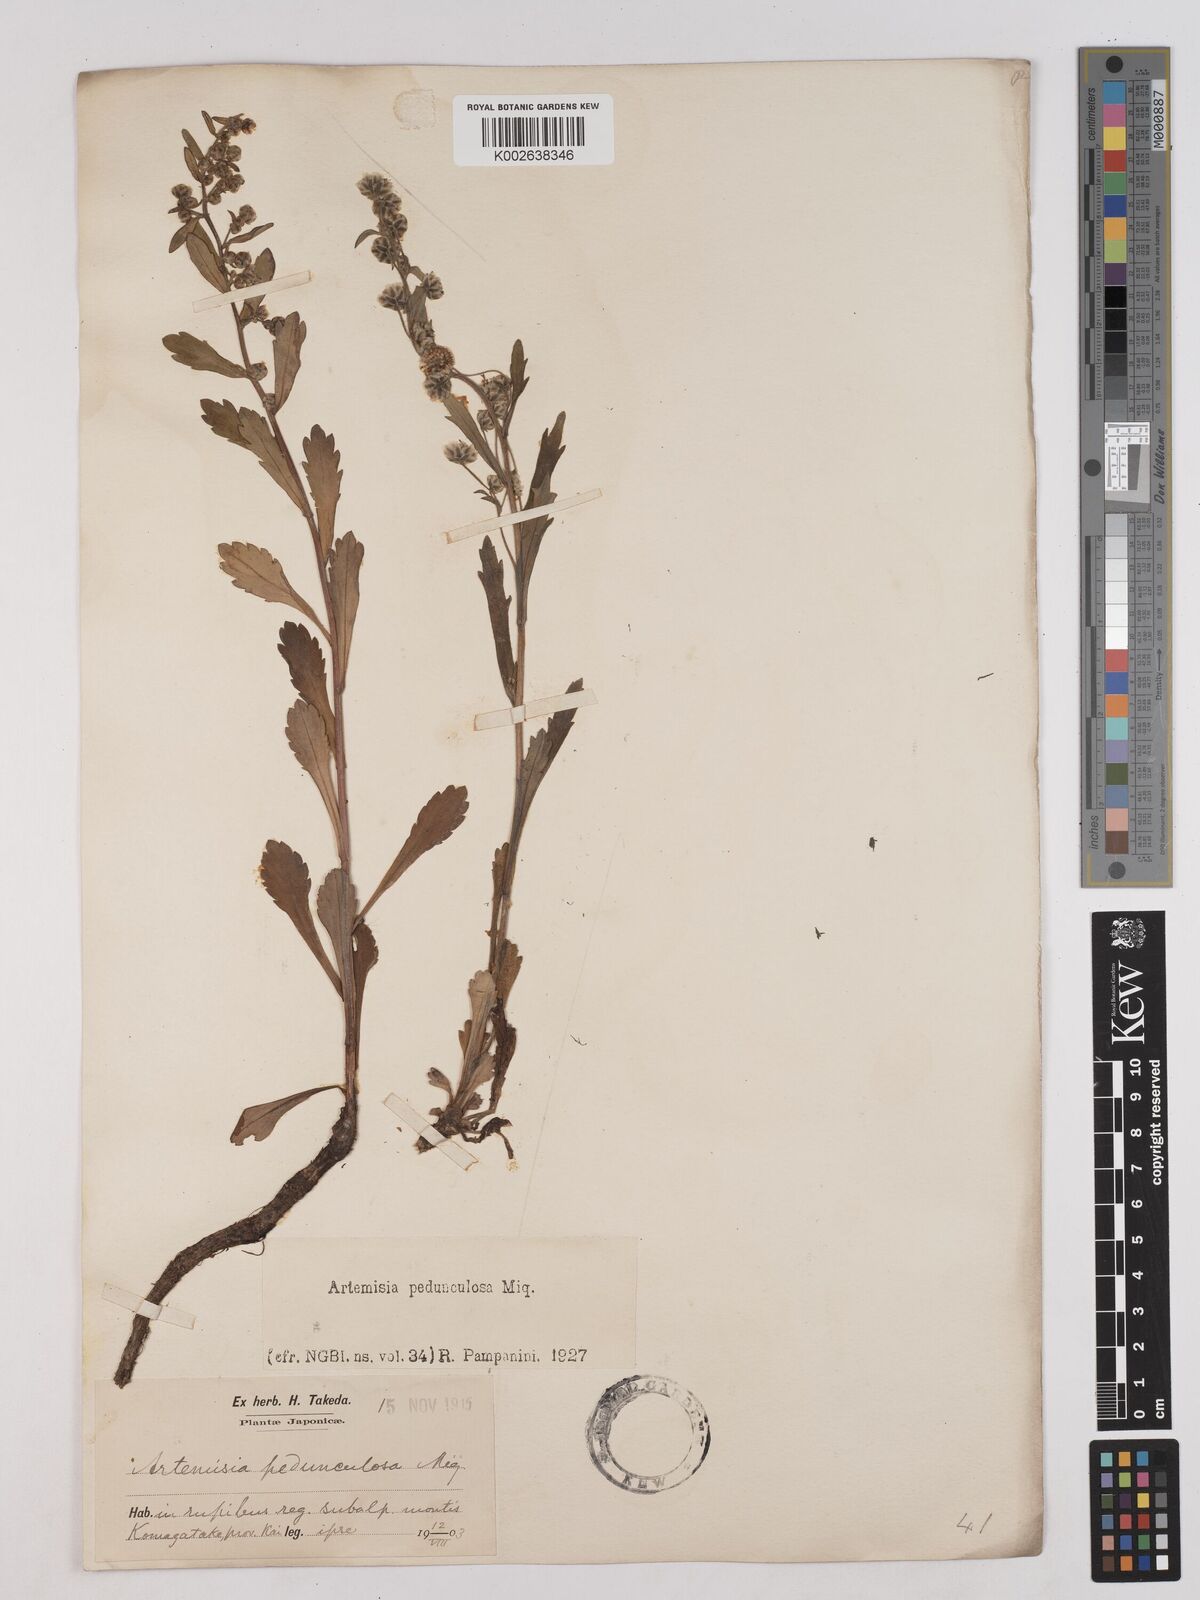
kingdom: Plantae
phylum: Tracheophyta
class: Magnoliopsida
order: Asterales
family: Asteraceae
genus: Artemisia
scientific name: Artemisia pedunculosa
